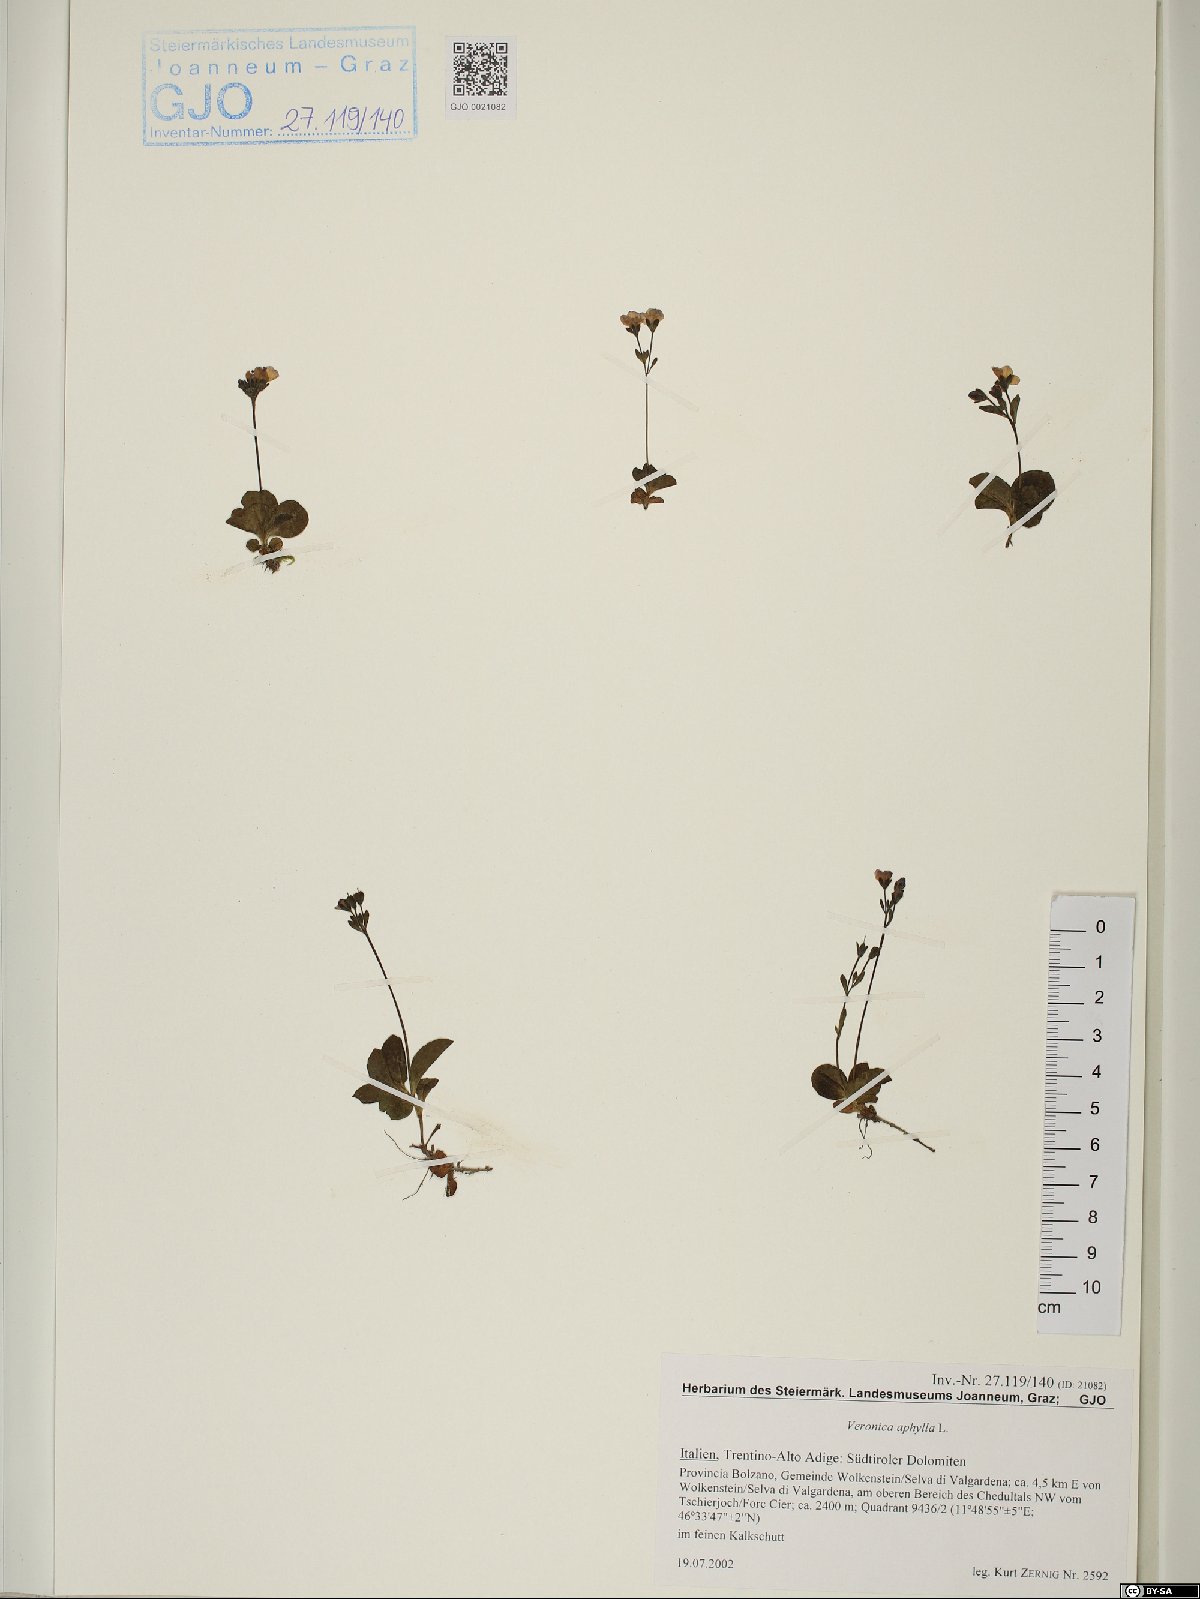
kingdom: Plantae
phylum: Tracheophyta
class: Magnoliopsida
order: Lamiales
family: Plantaginaceae
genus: Veronica
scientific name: Veronica aphylla
